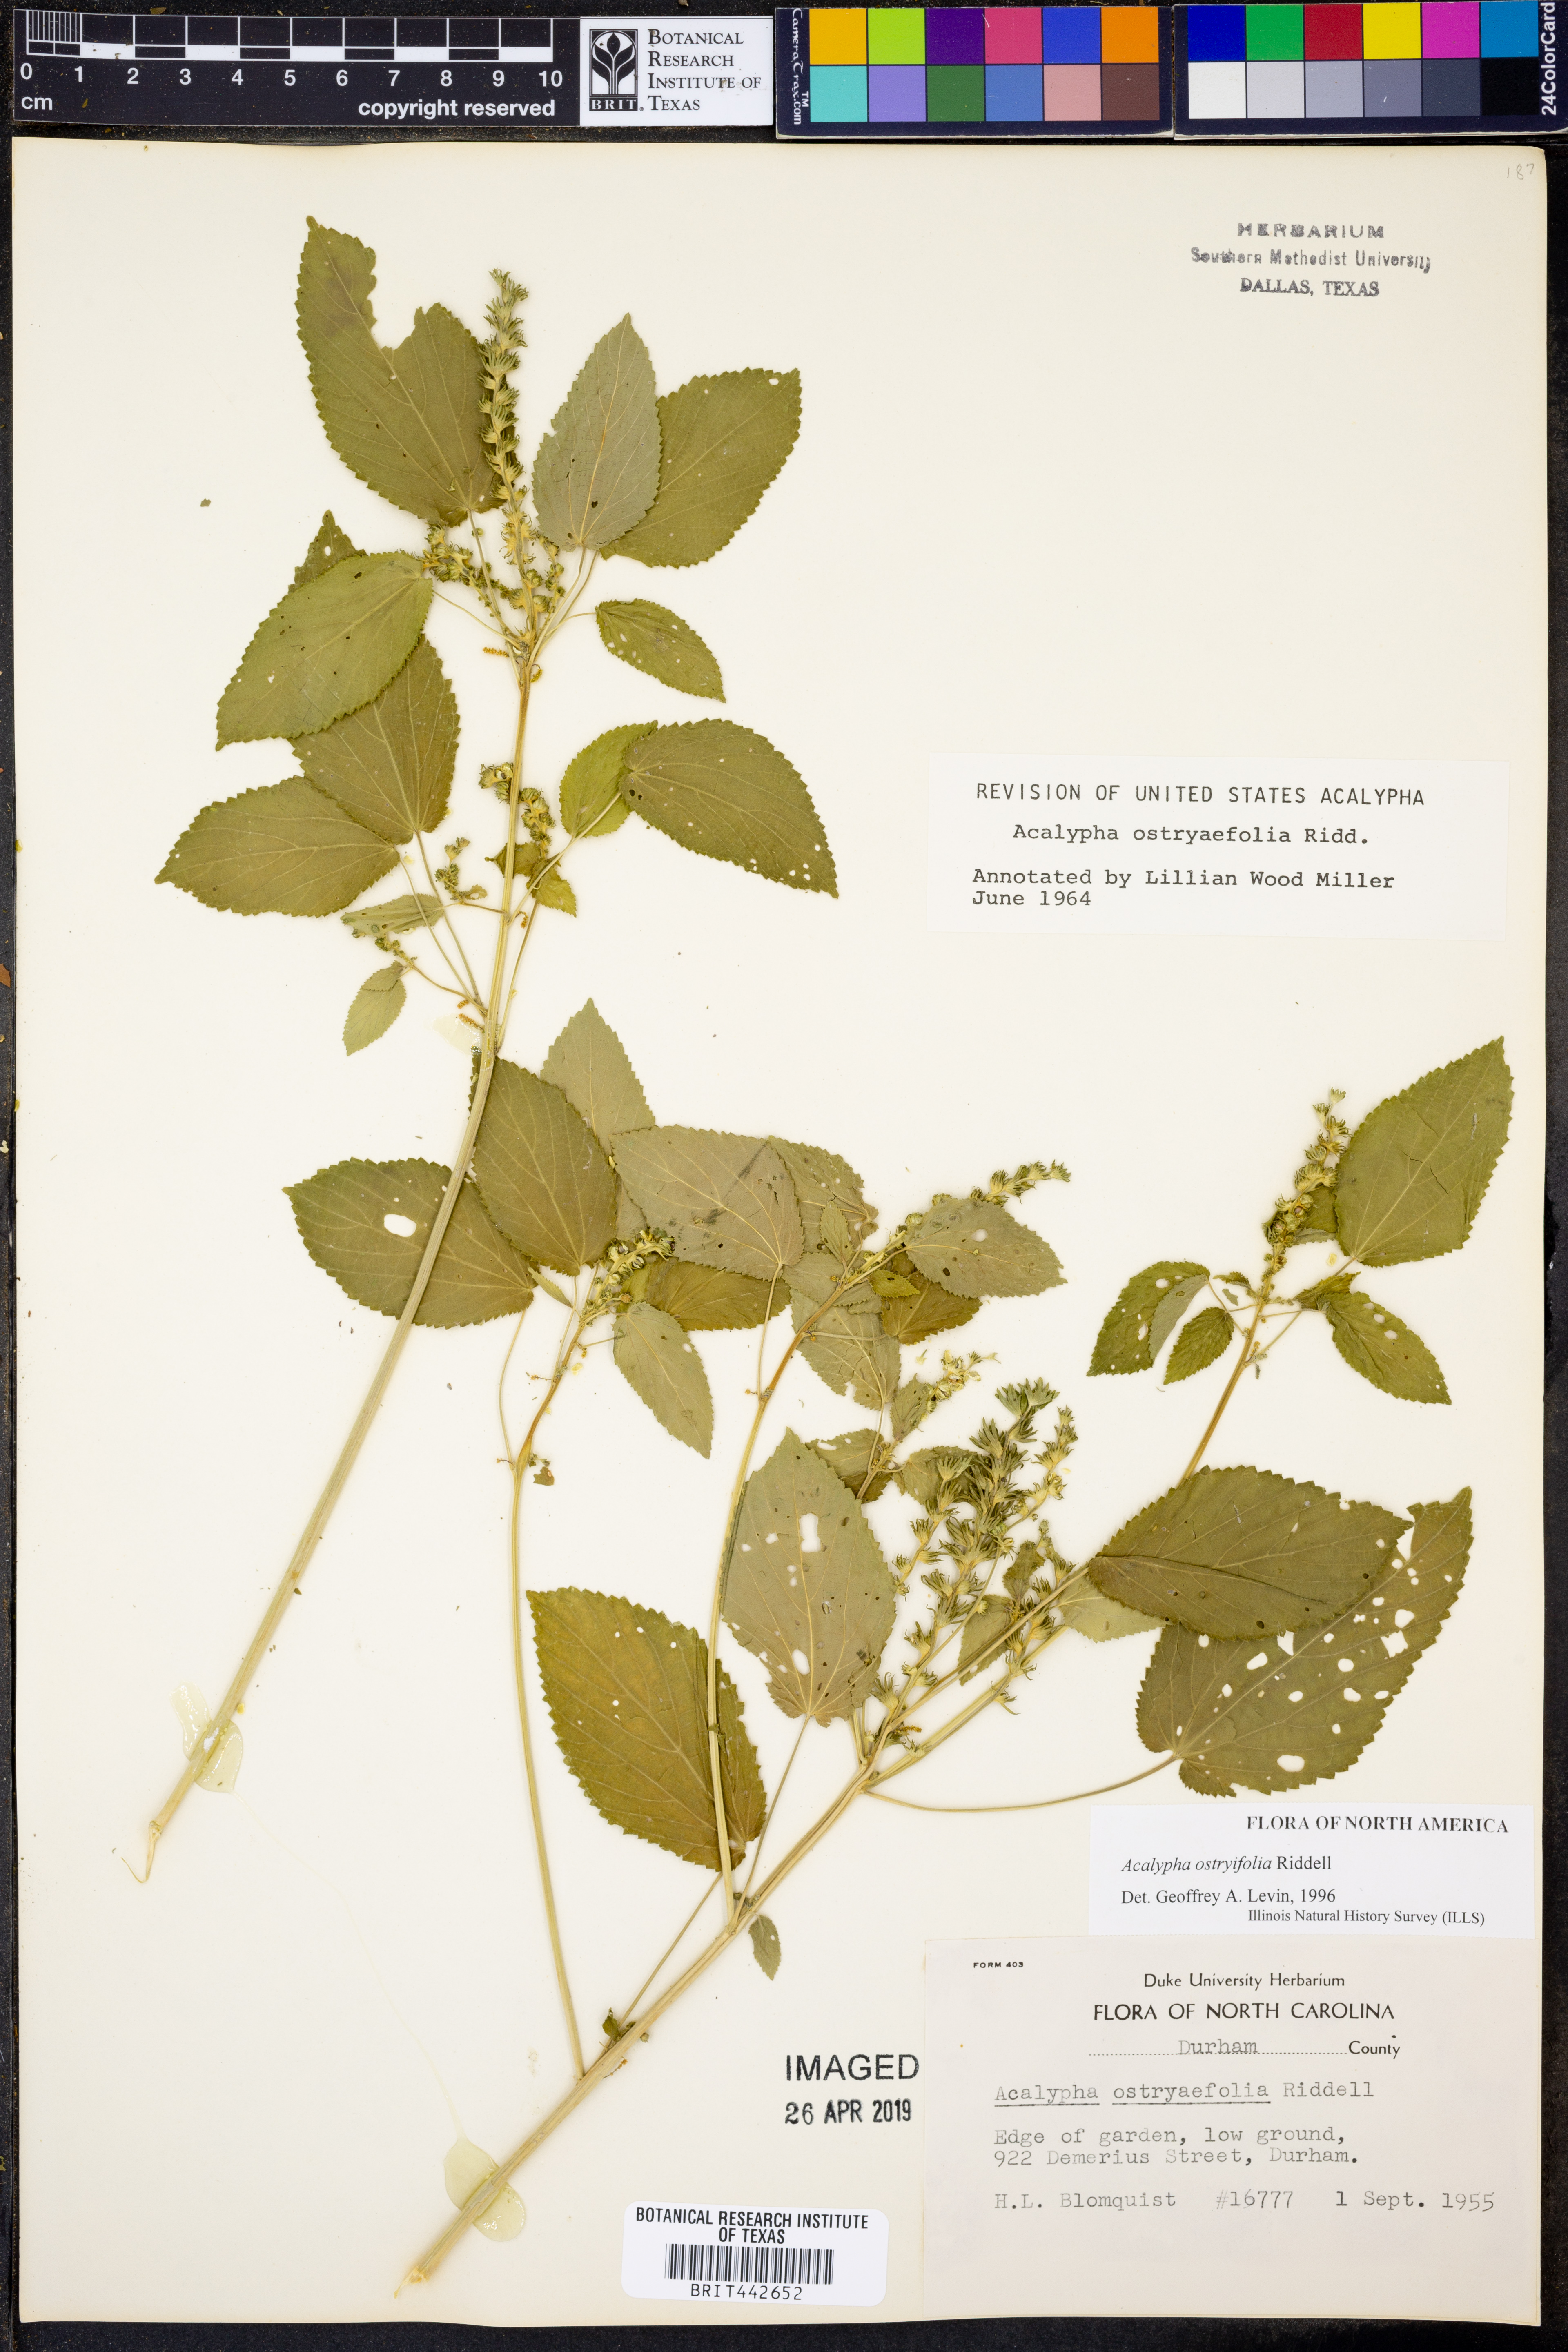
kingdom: Plantae
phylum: Tracheophyta
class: Magnoliopsida
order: Malpighiales
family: Euphorbiaceae
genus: Acalypha
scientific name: Acalypha persimilis
